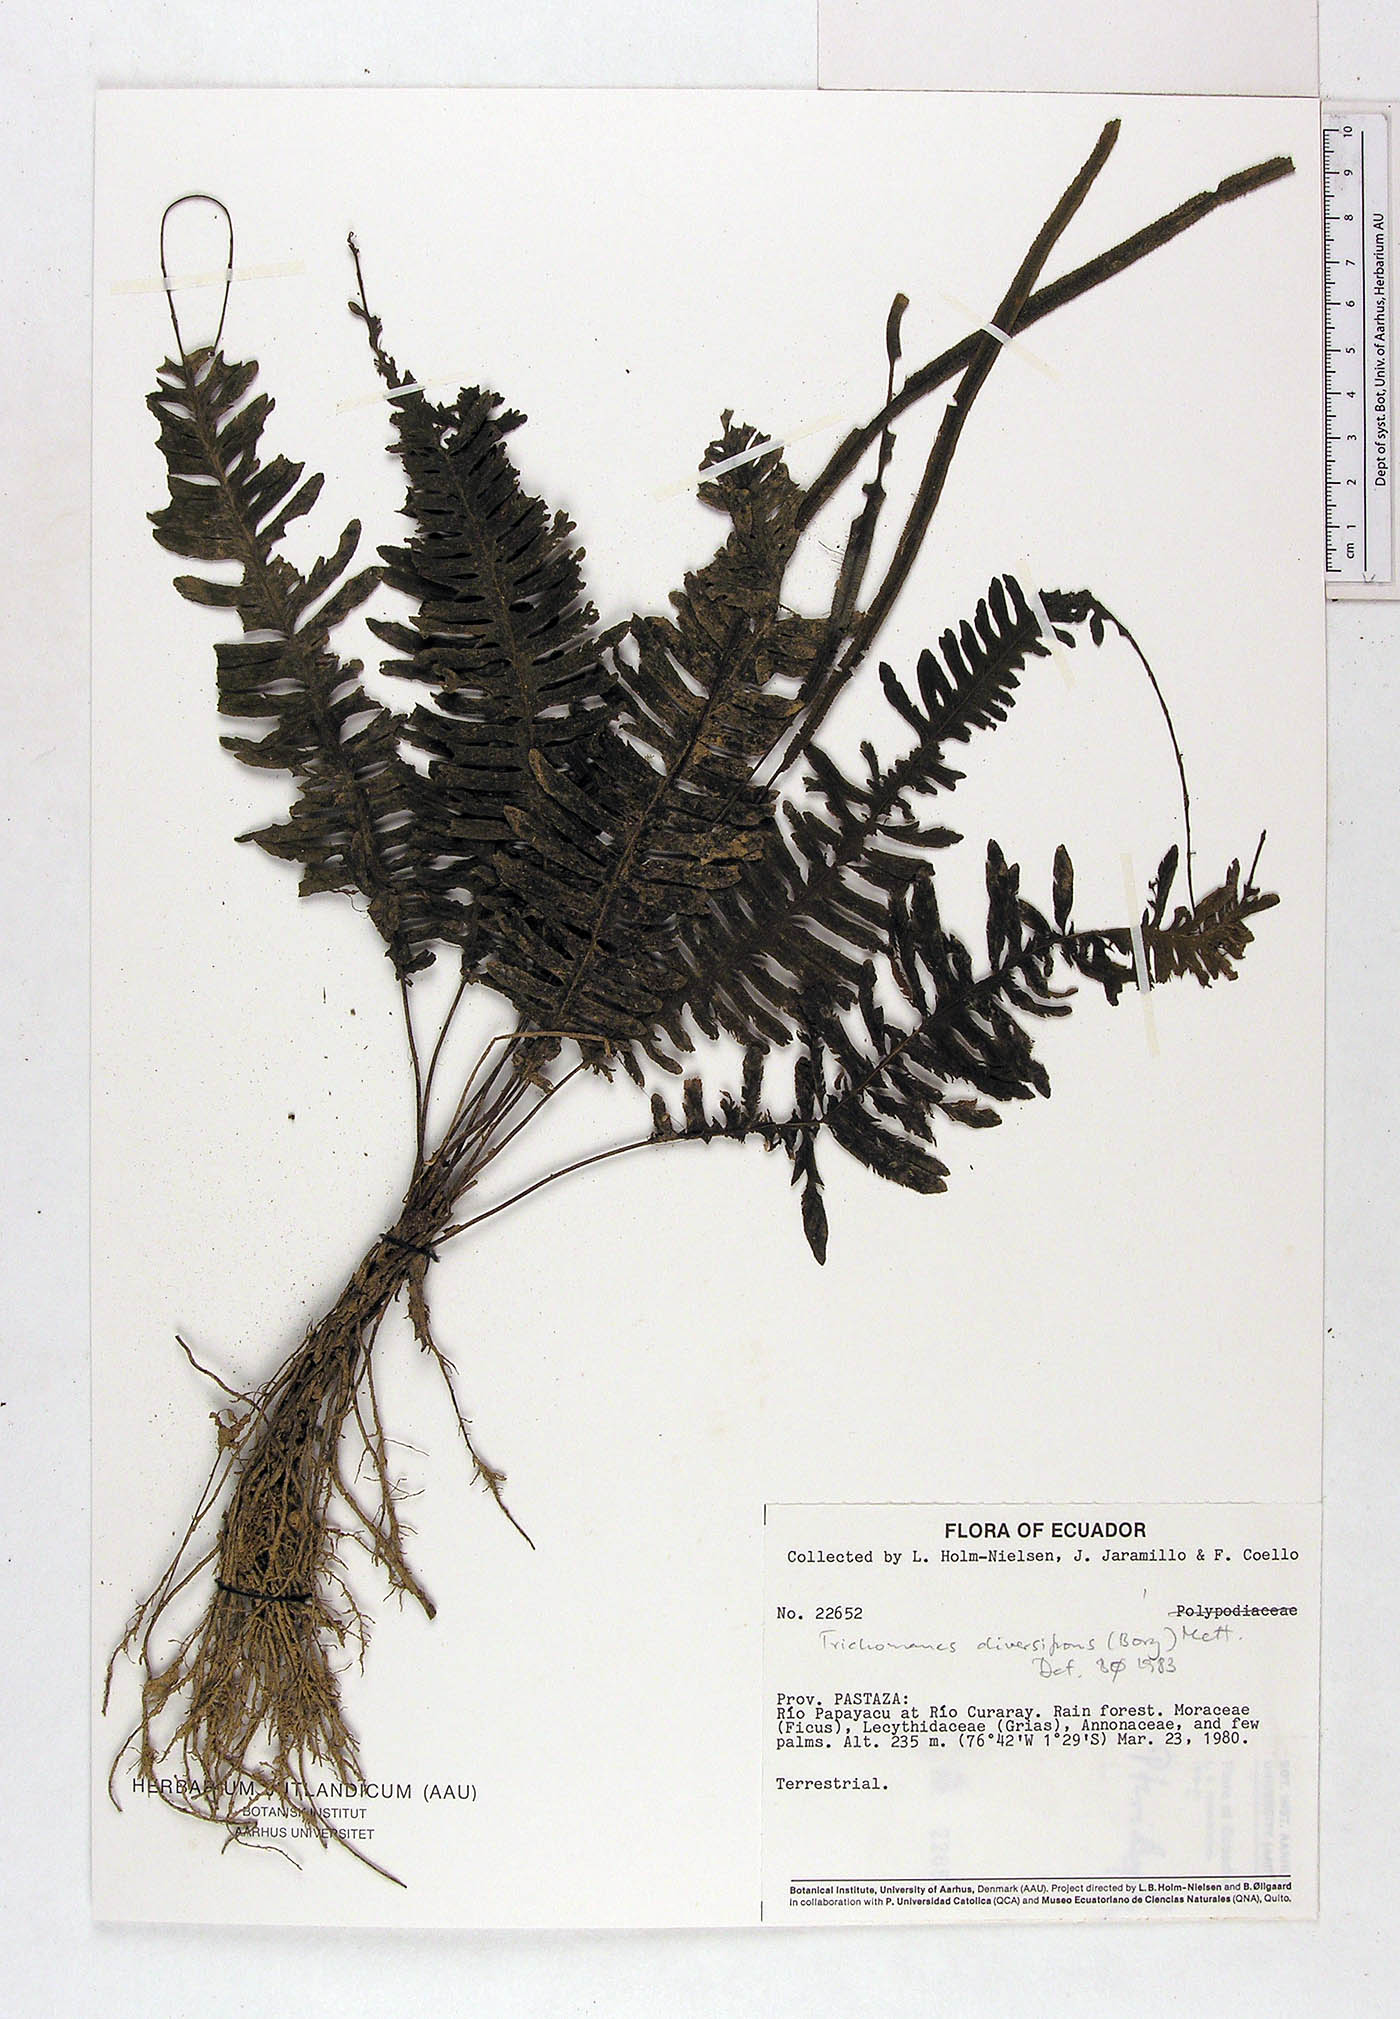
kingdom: Plantae
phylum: Tracheophyta
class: Polypodiopsida
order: Hymenophyllales
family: Hymenophyllaceae
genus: Trichomanes
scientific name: Trichomanes diversifrons
